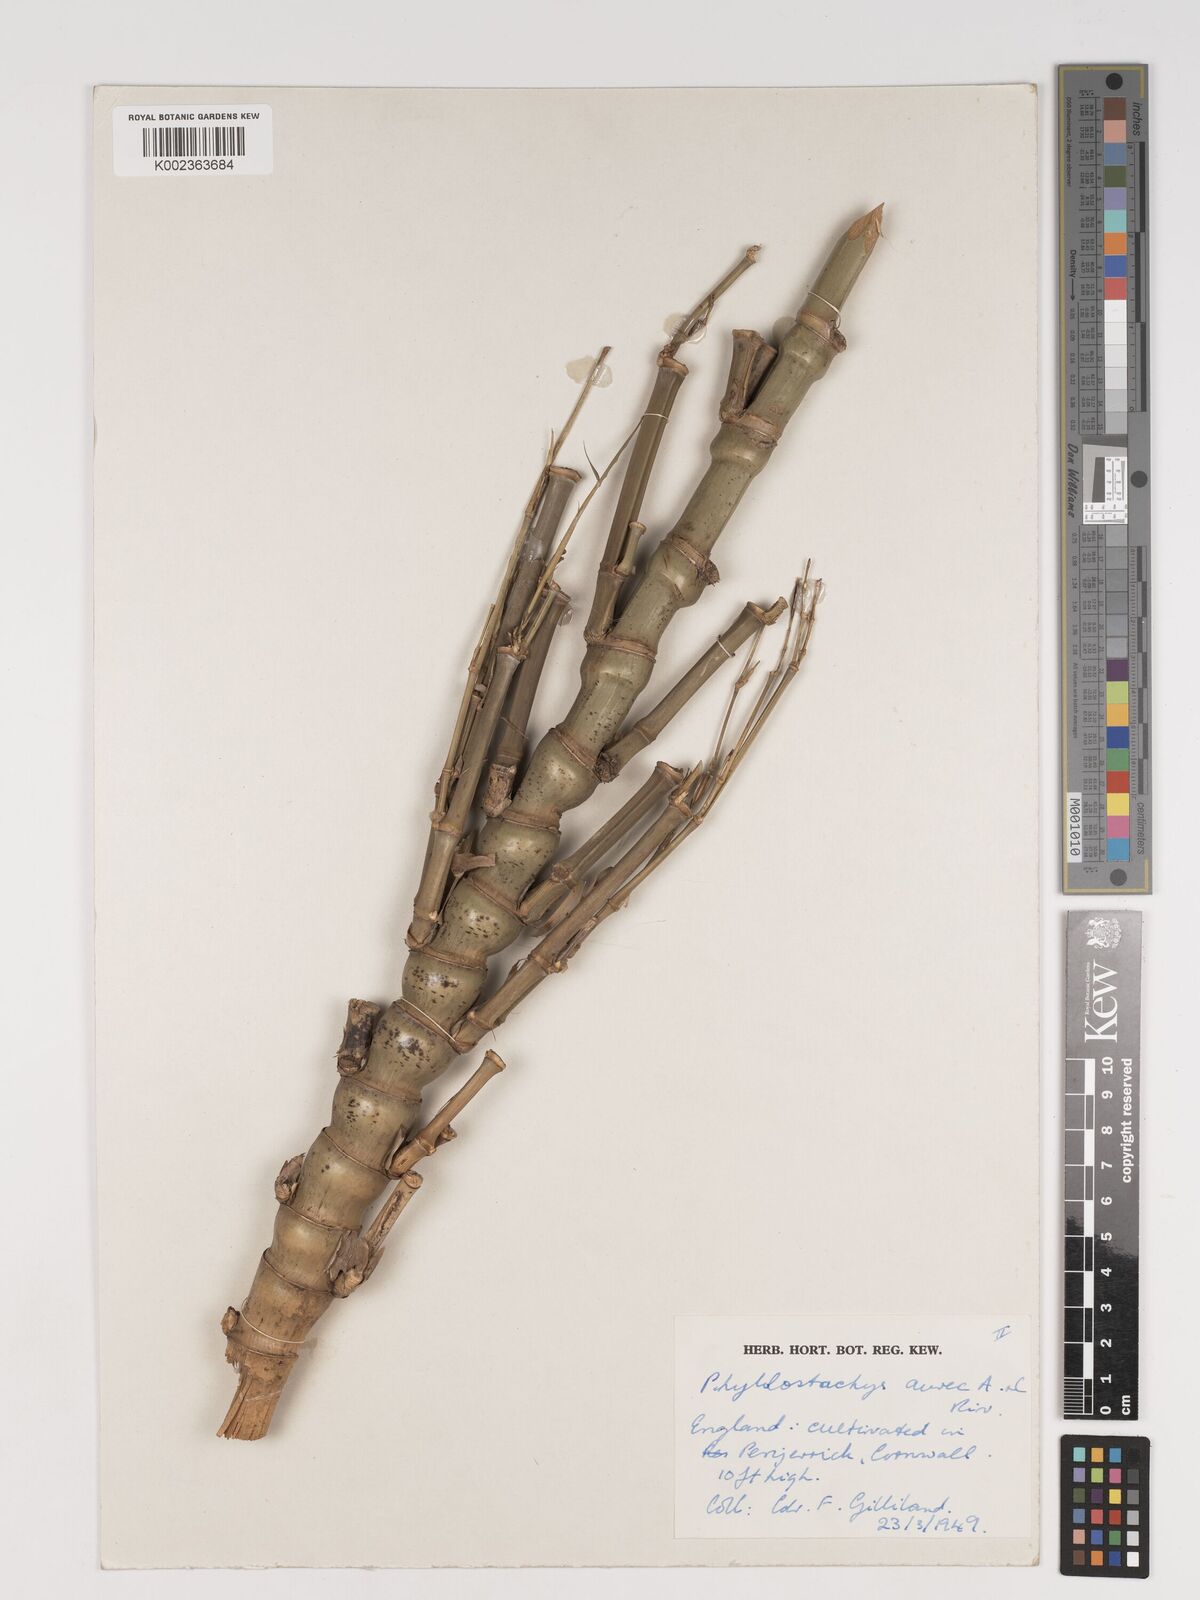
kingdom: Plantae
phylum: Tracheophyta
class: Liliopsida
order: Poales
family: Poaceae
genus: Phyllostachys
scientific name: Phyllostachys aurea
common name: Golden bamboo
